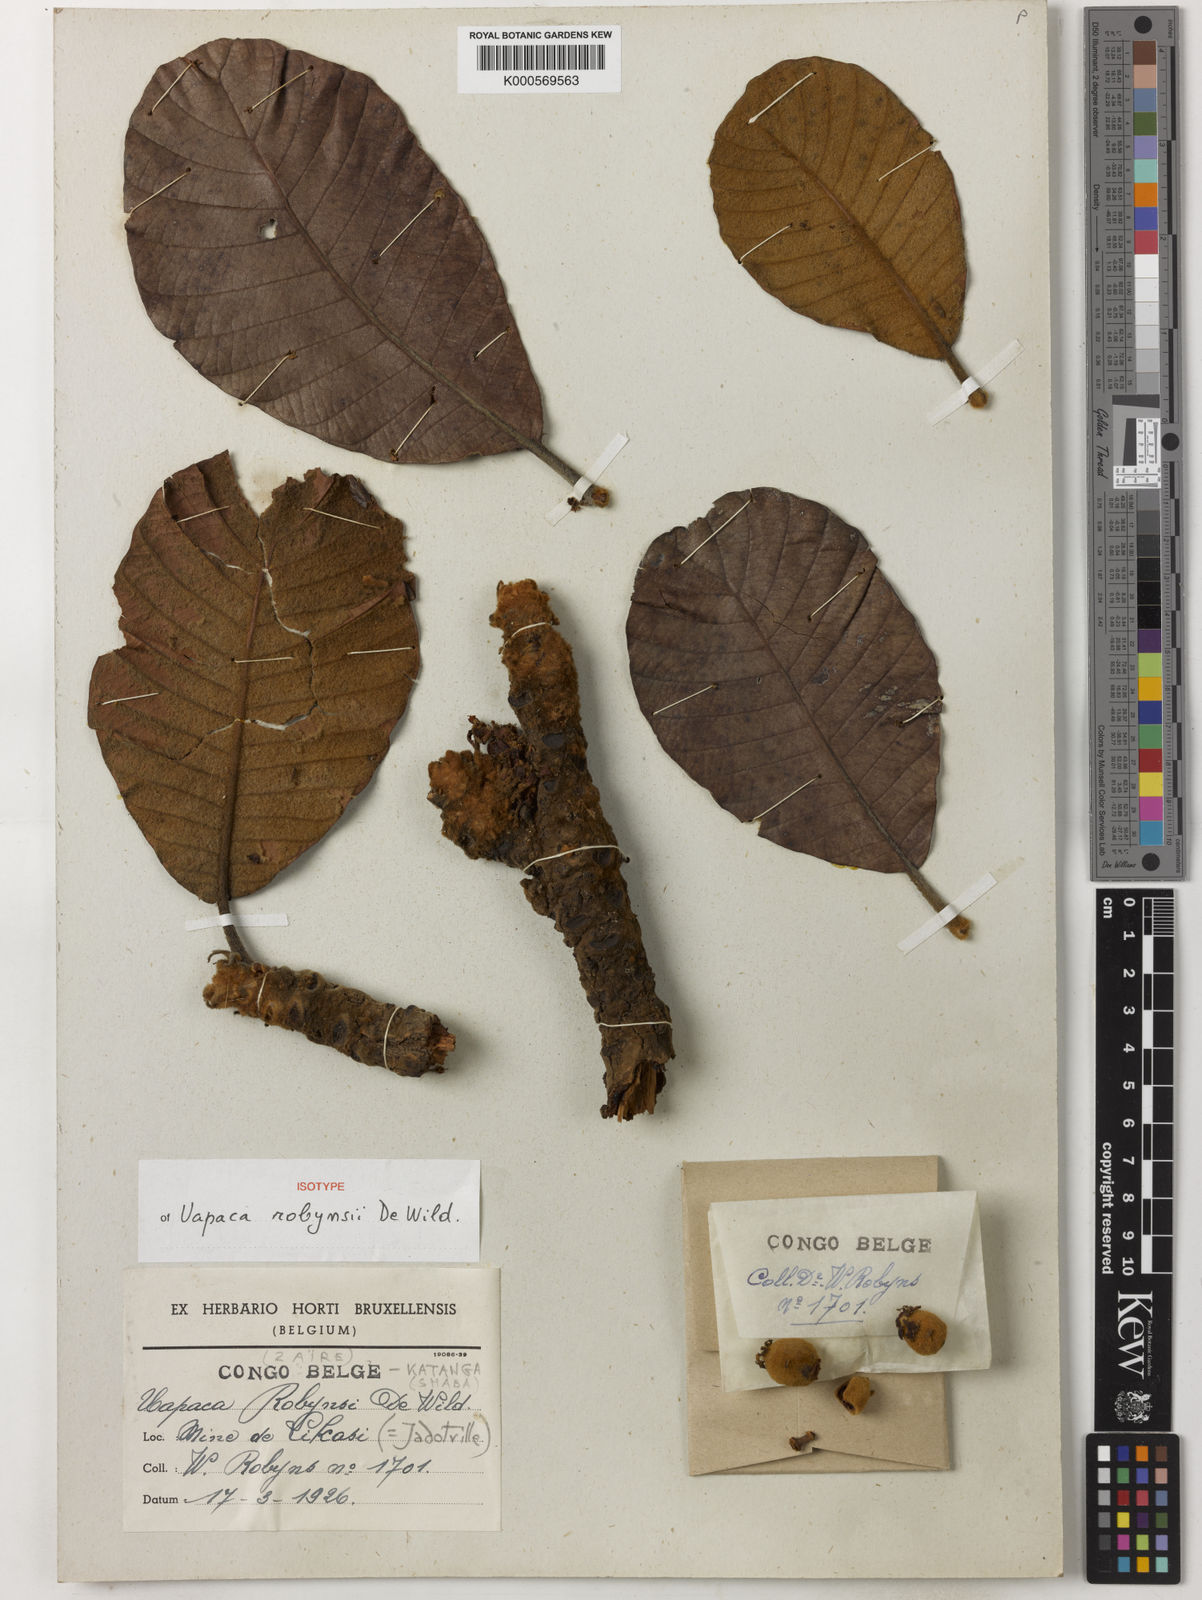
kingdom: Plantae
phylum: Tracheophyta
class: Magnoliopsida
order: Malpighiales
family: Phyllanthaceae
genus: Uapaca
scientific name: Uapaca robynsii
